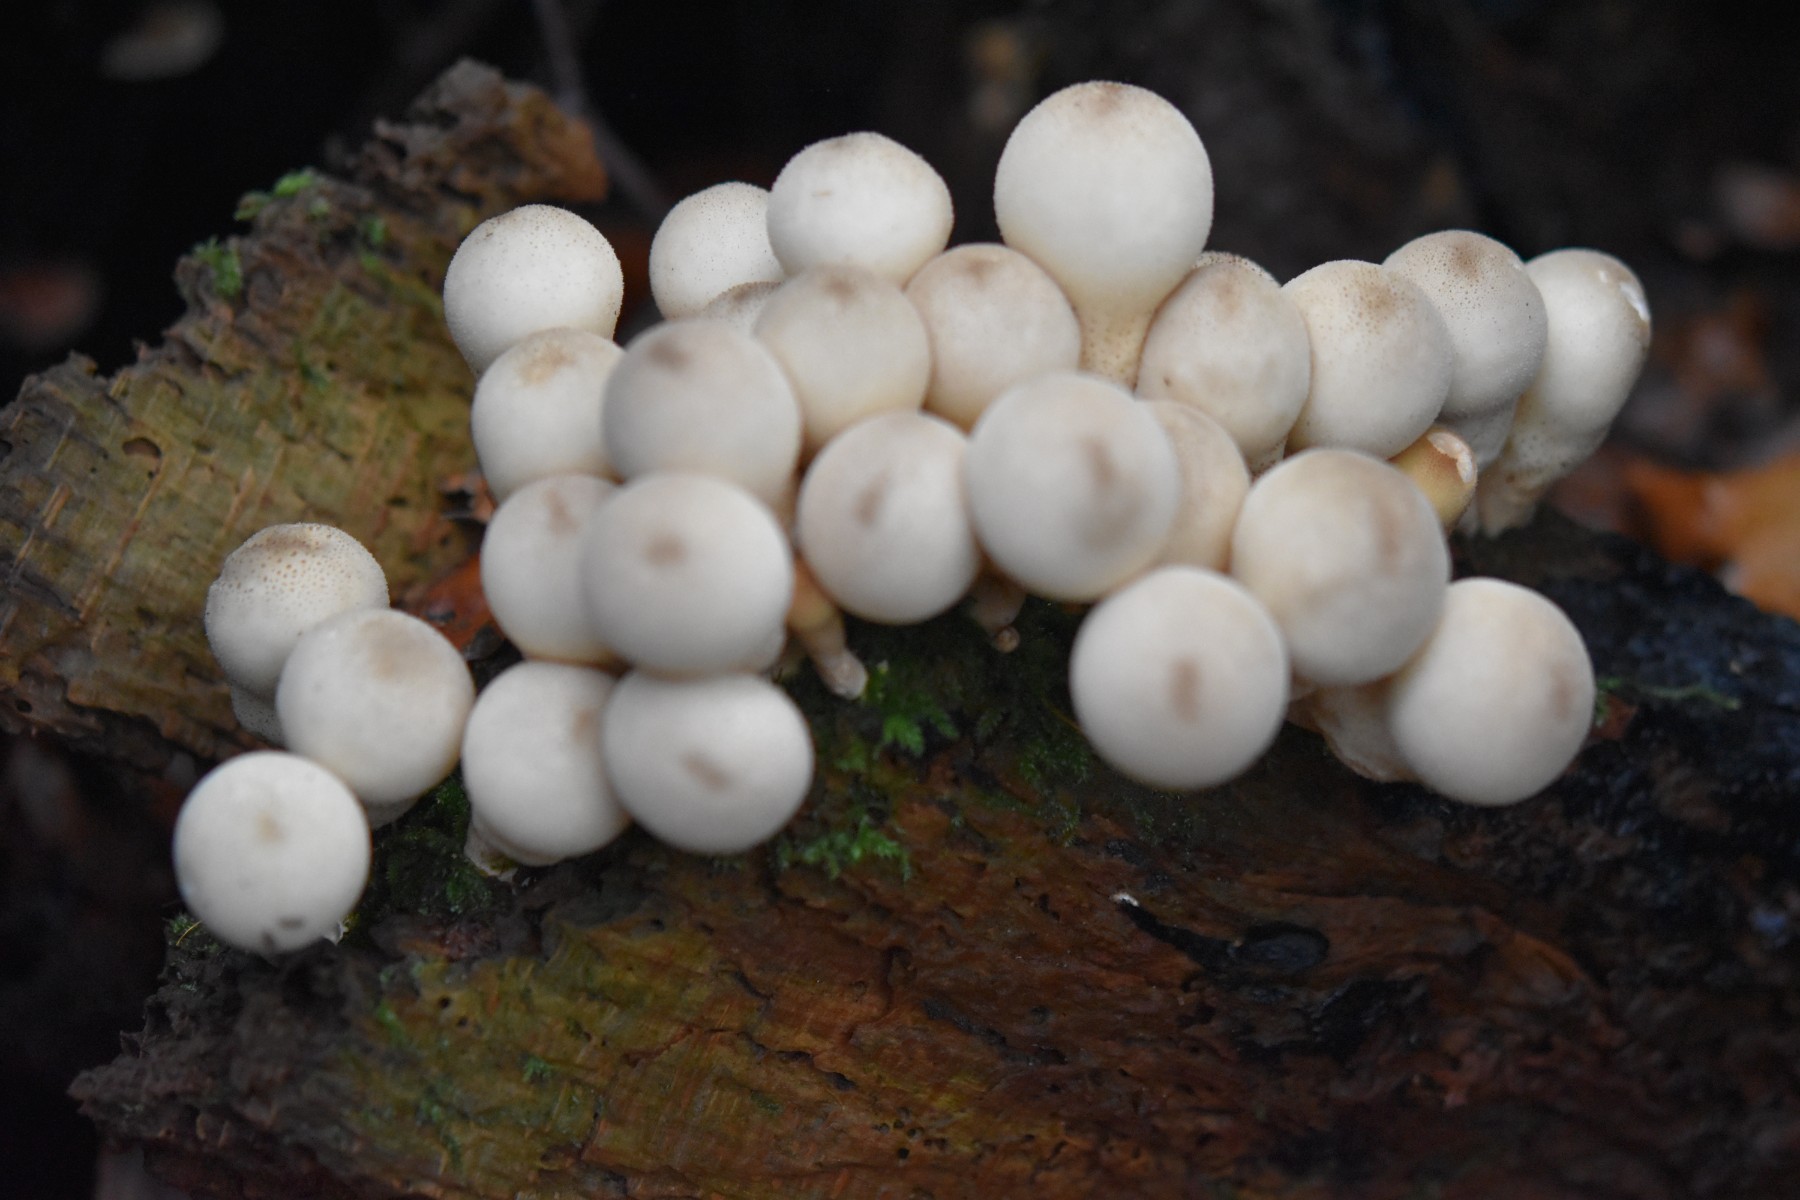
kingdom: Fungi
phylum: Basidiomycota
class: Agaricomycetes
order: Agaricales
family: Lycoperdaceae
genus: Apioperdon
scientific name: Apioperdon pyriforme
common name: pære-støvbold
